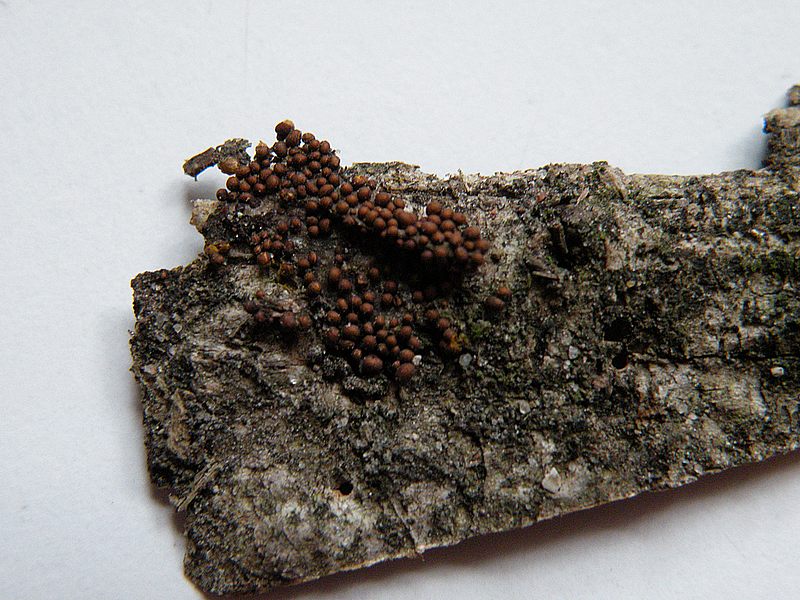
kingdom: Protozoa
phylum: Mycetozoa
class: Myxomycetes
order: Trichiales
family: Trichiaceae
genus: Perichaena
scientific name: Perichaena corticalis
